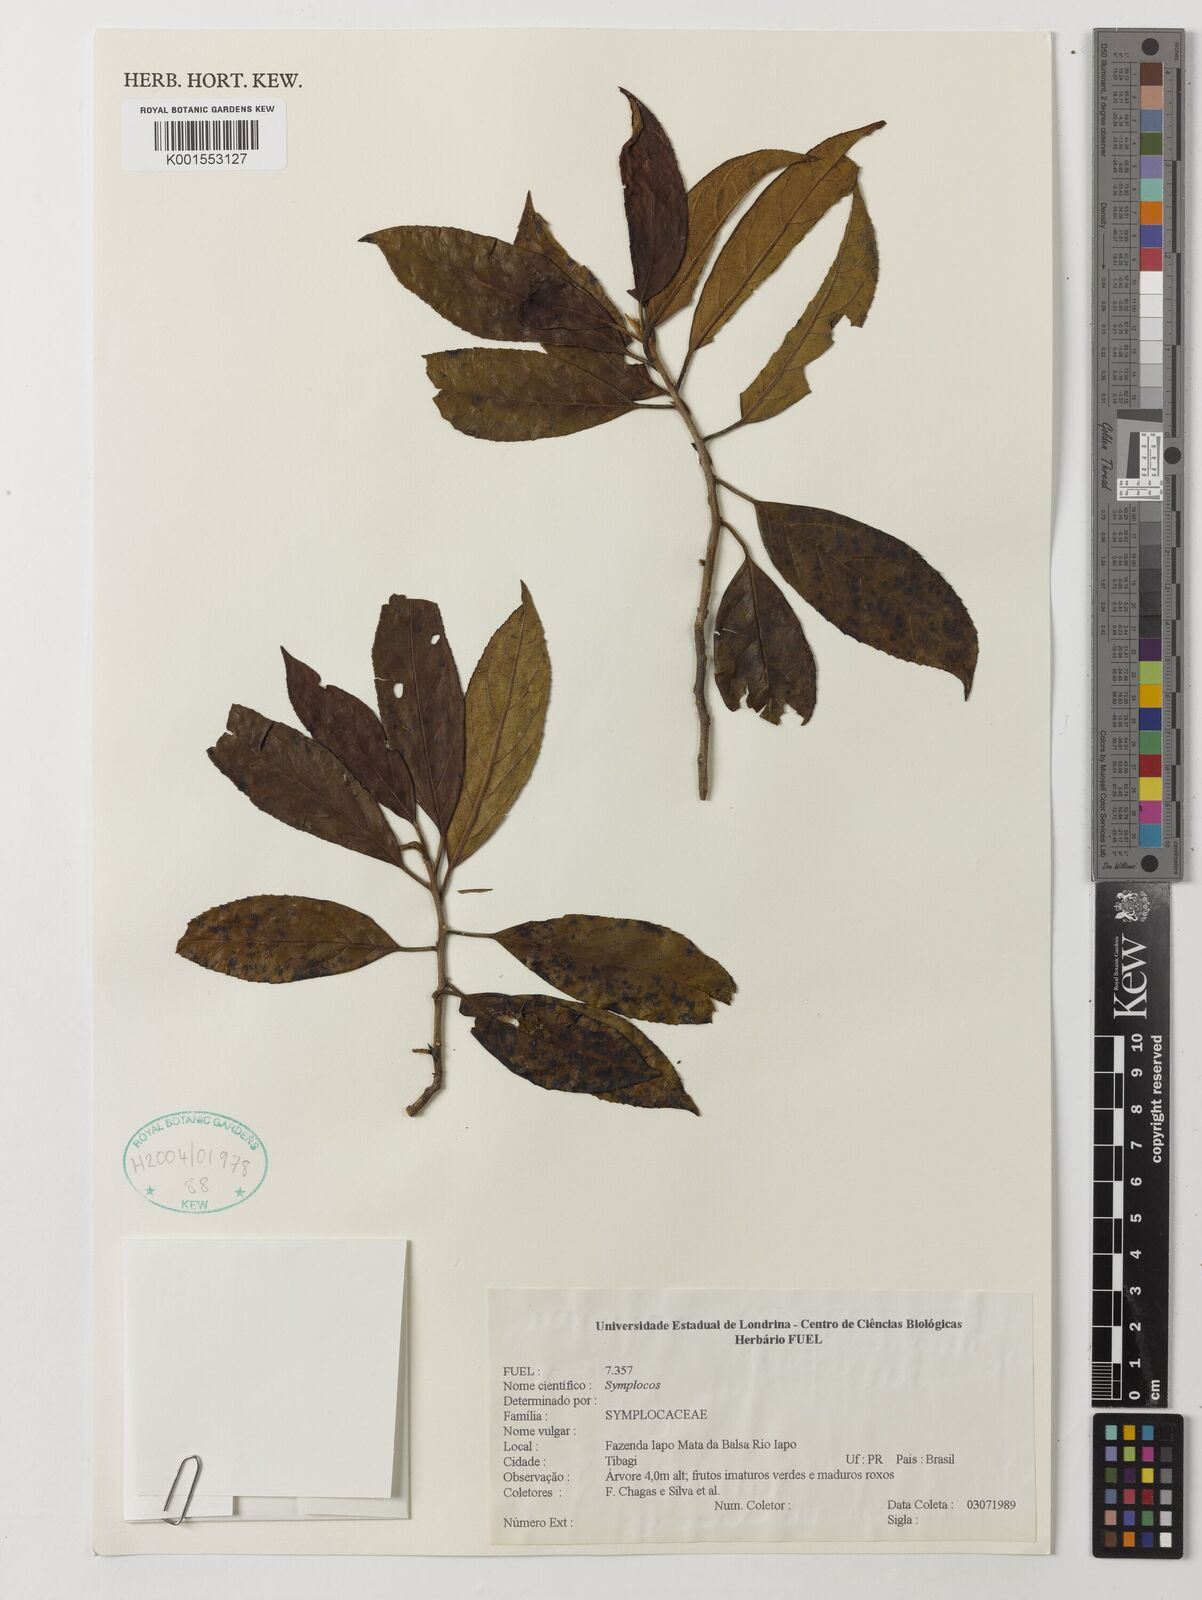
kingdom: Plantae
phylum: Tracheophyta
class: Magnoliopsida
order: Ericales
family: Symplocaceae
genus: Symplocos
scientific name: Symplocos
